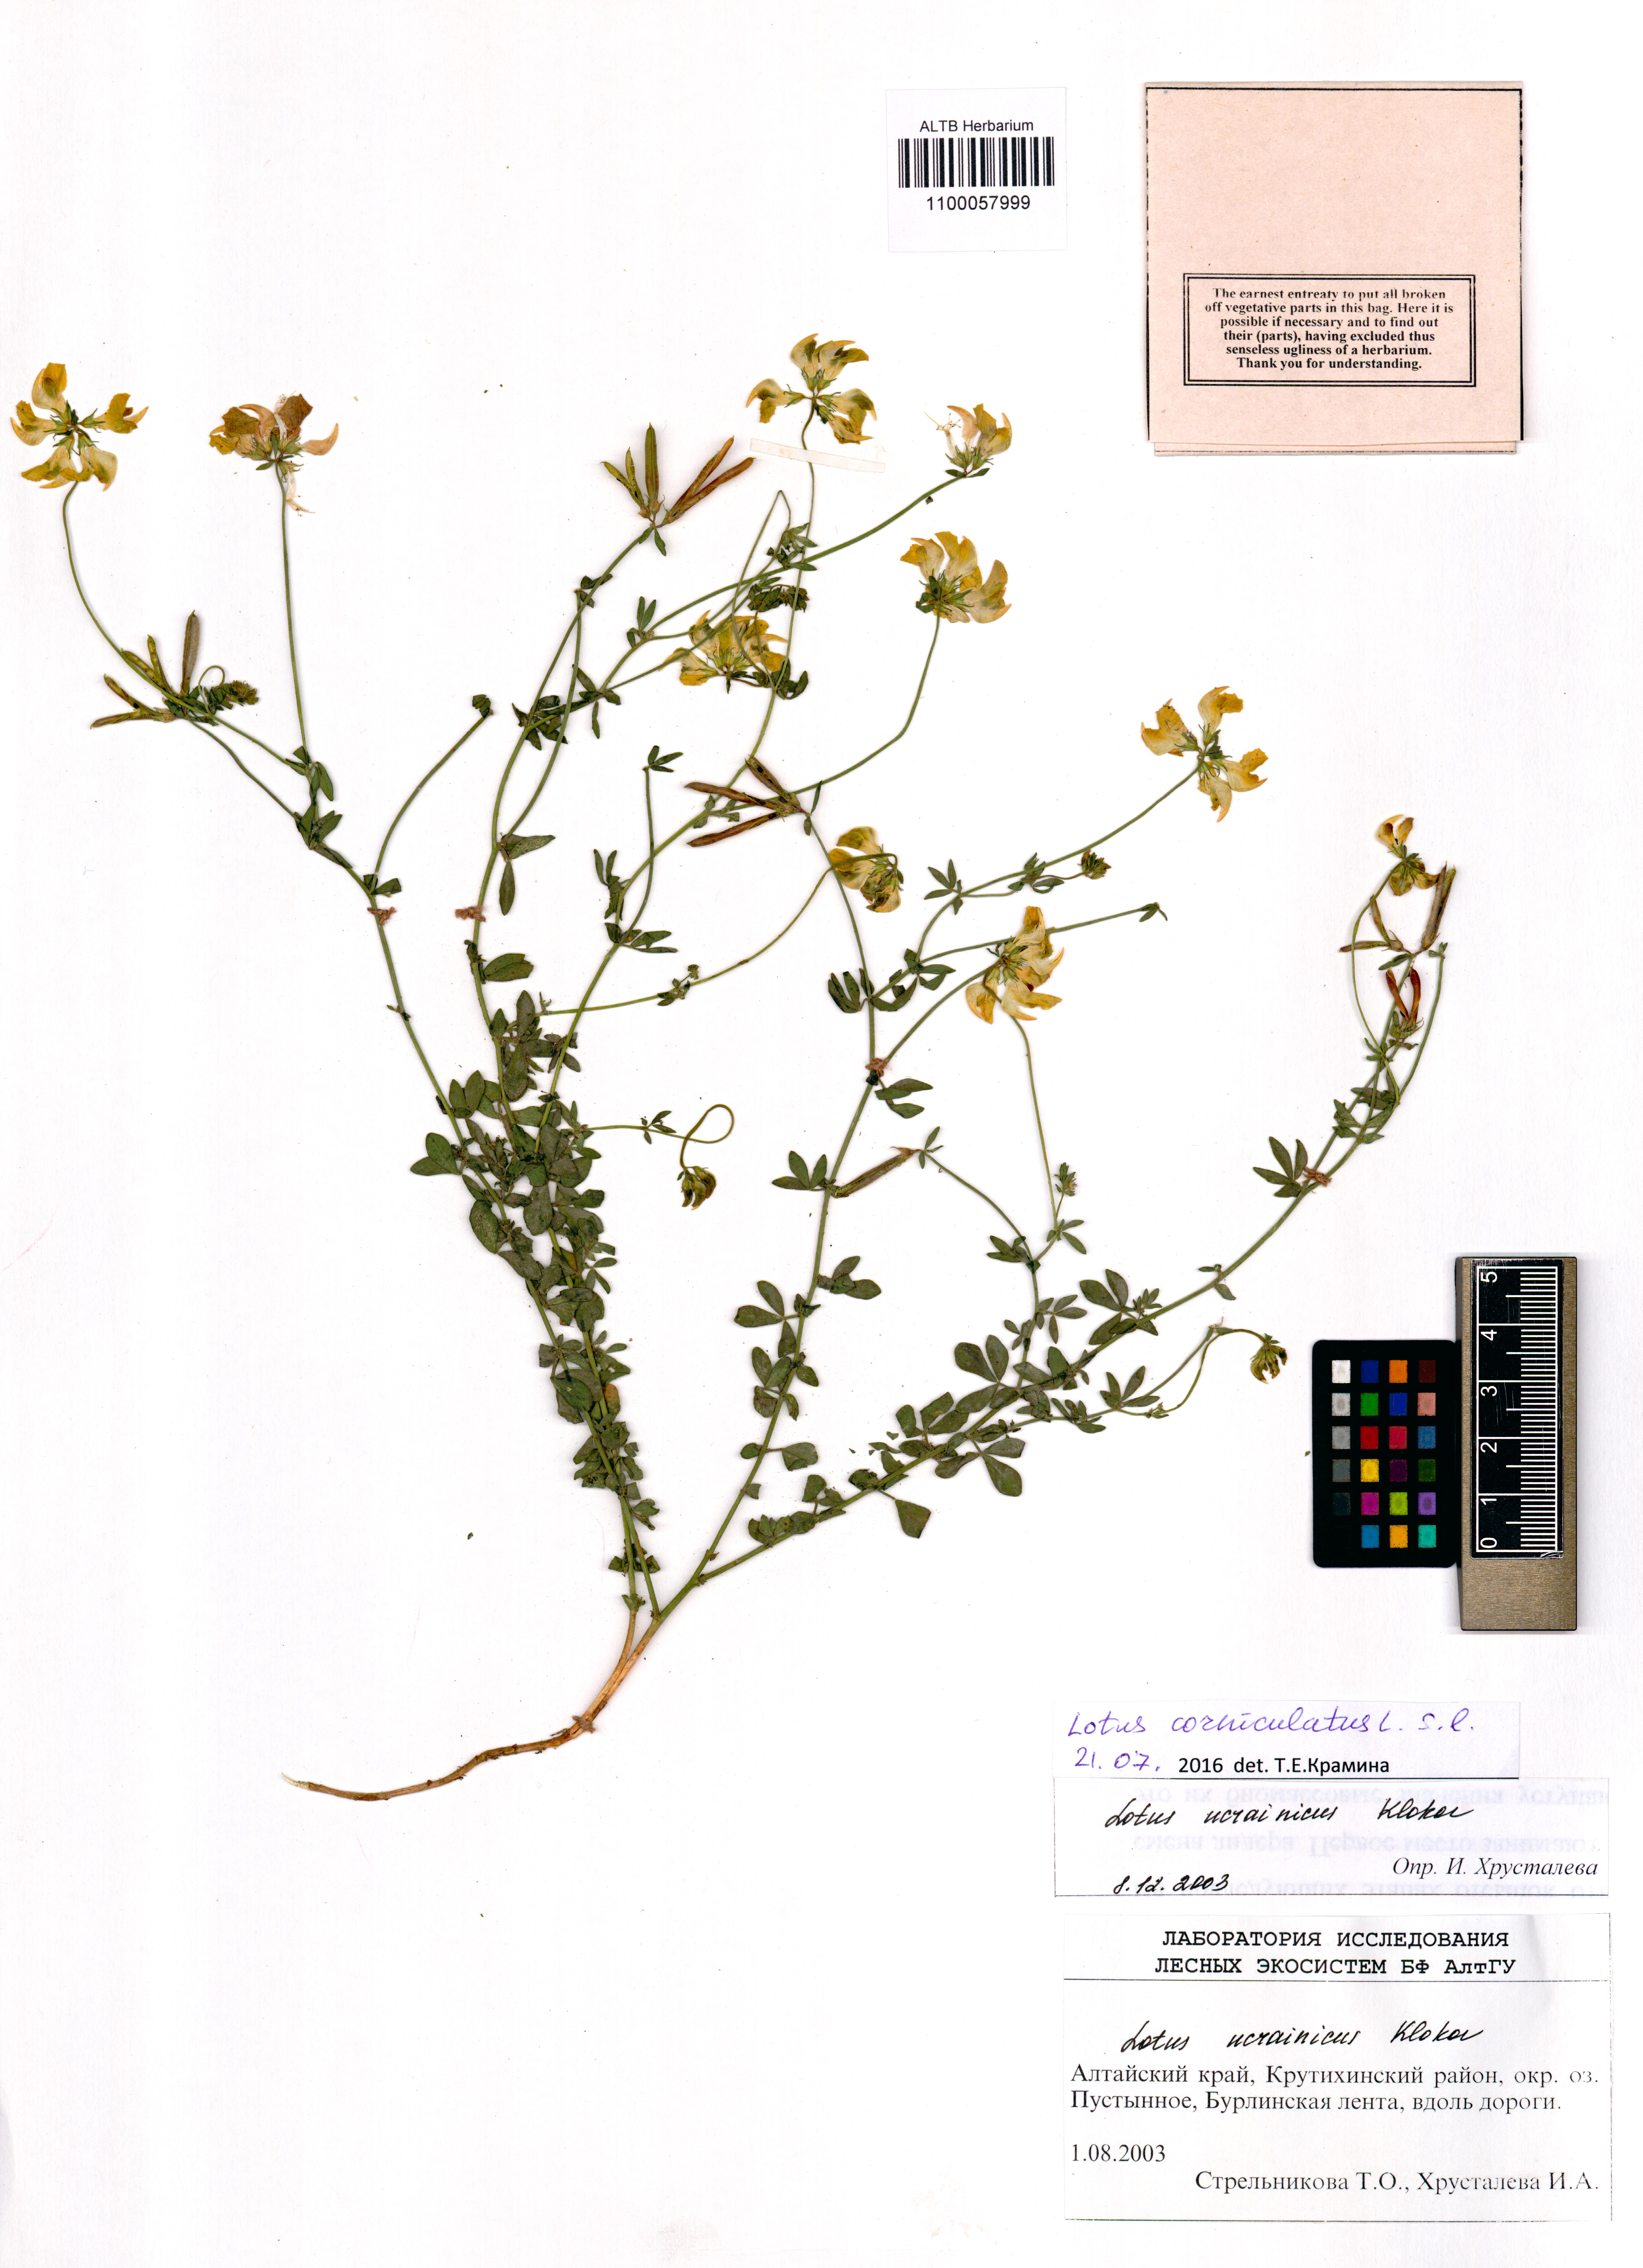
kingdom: Plantae
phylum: Tracheophyta
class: Magnoliopsida
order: Fabales
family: Fabaceae
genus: Lotus
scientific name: Lotus corniculatus
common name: Common bird's-foot-trefoil
